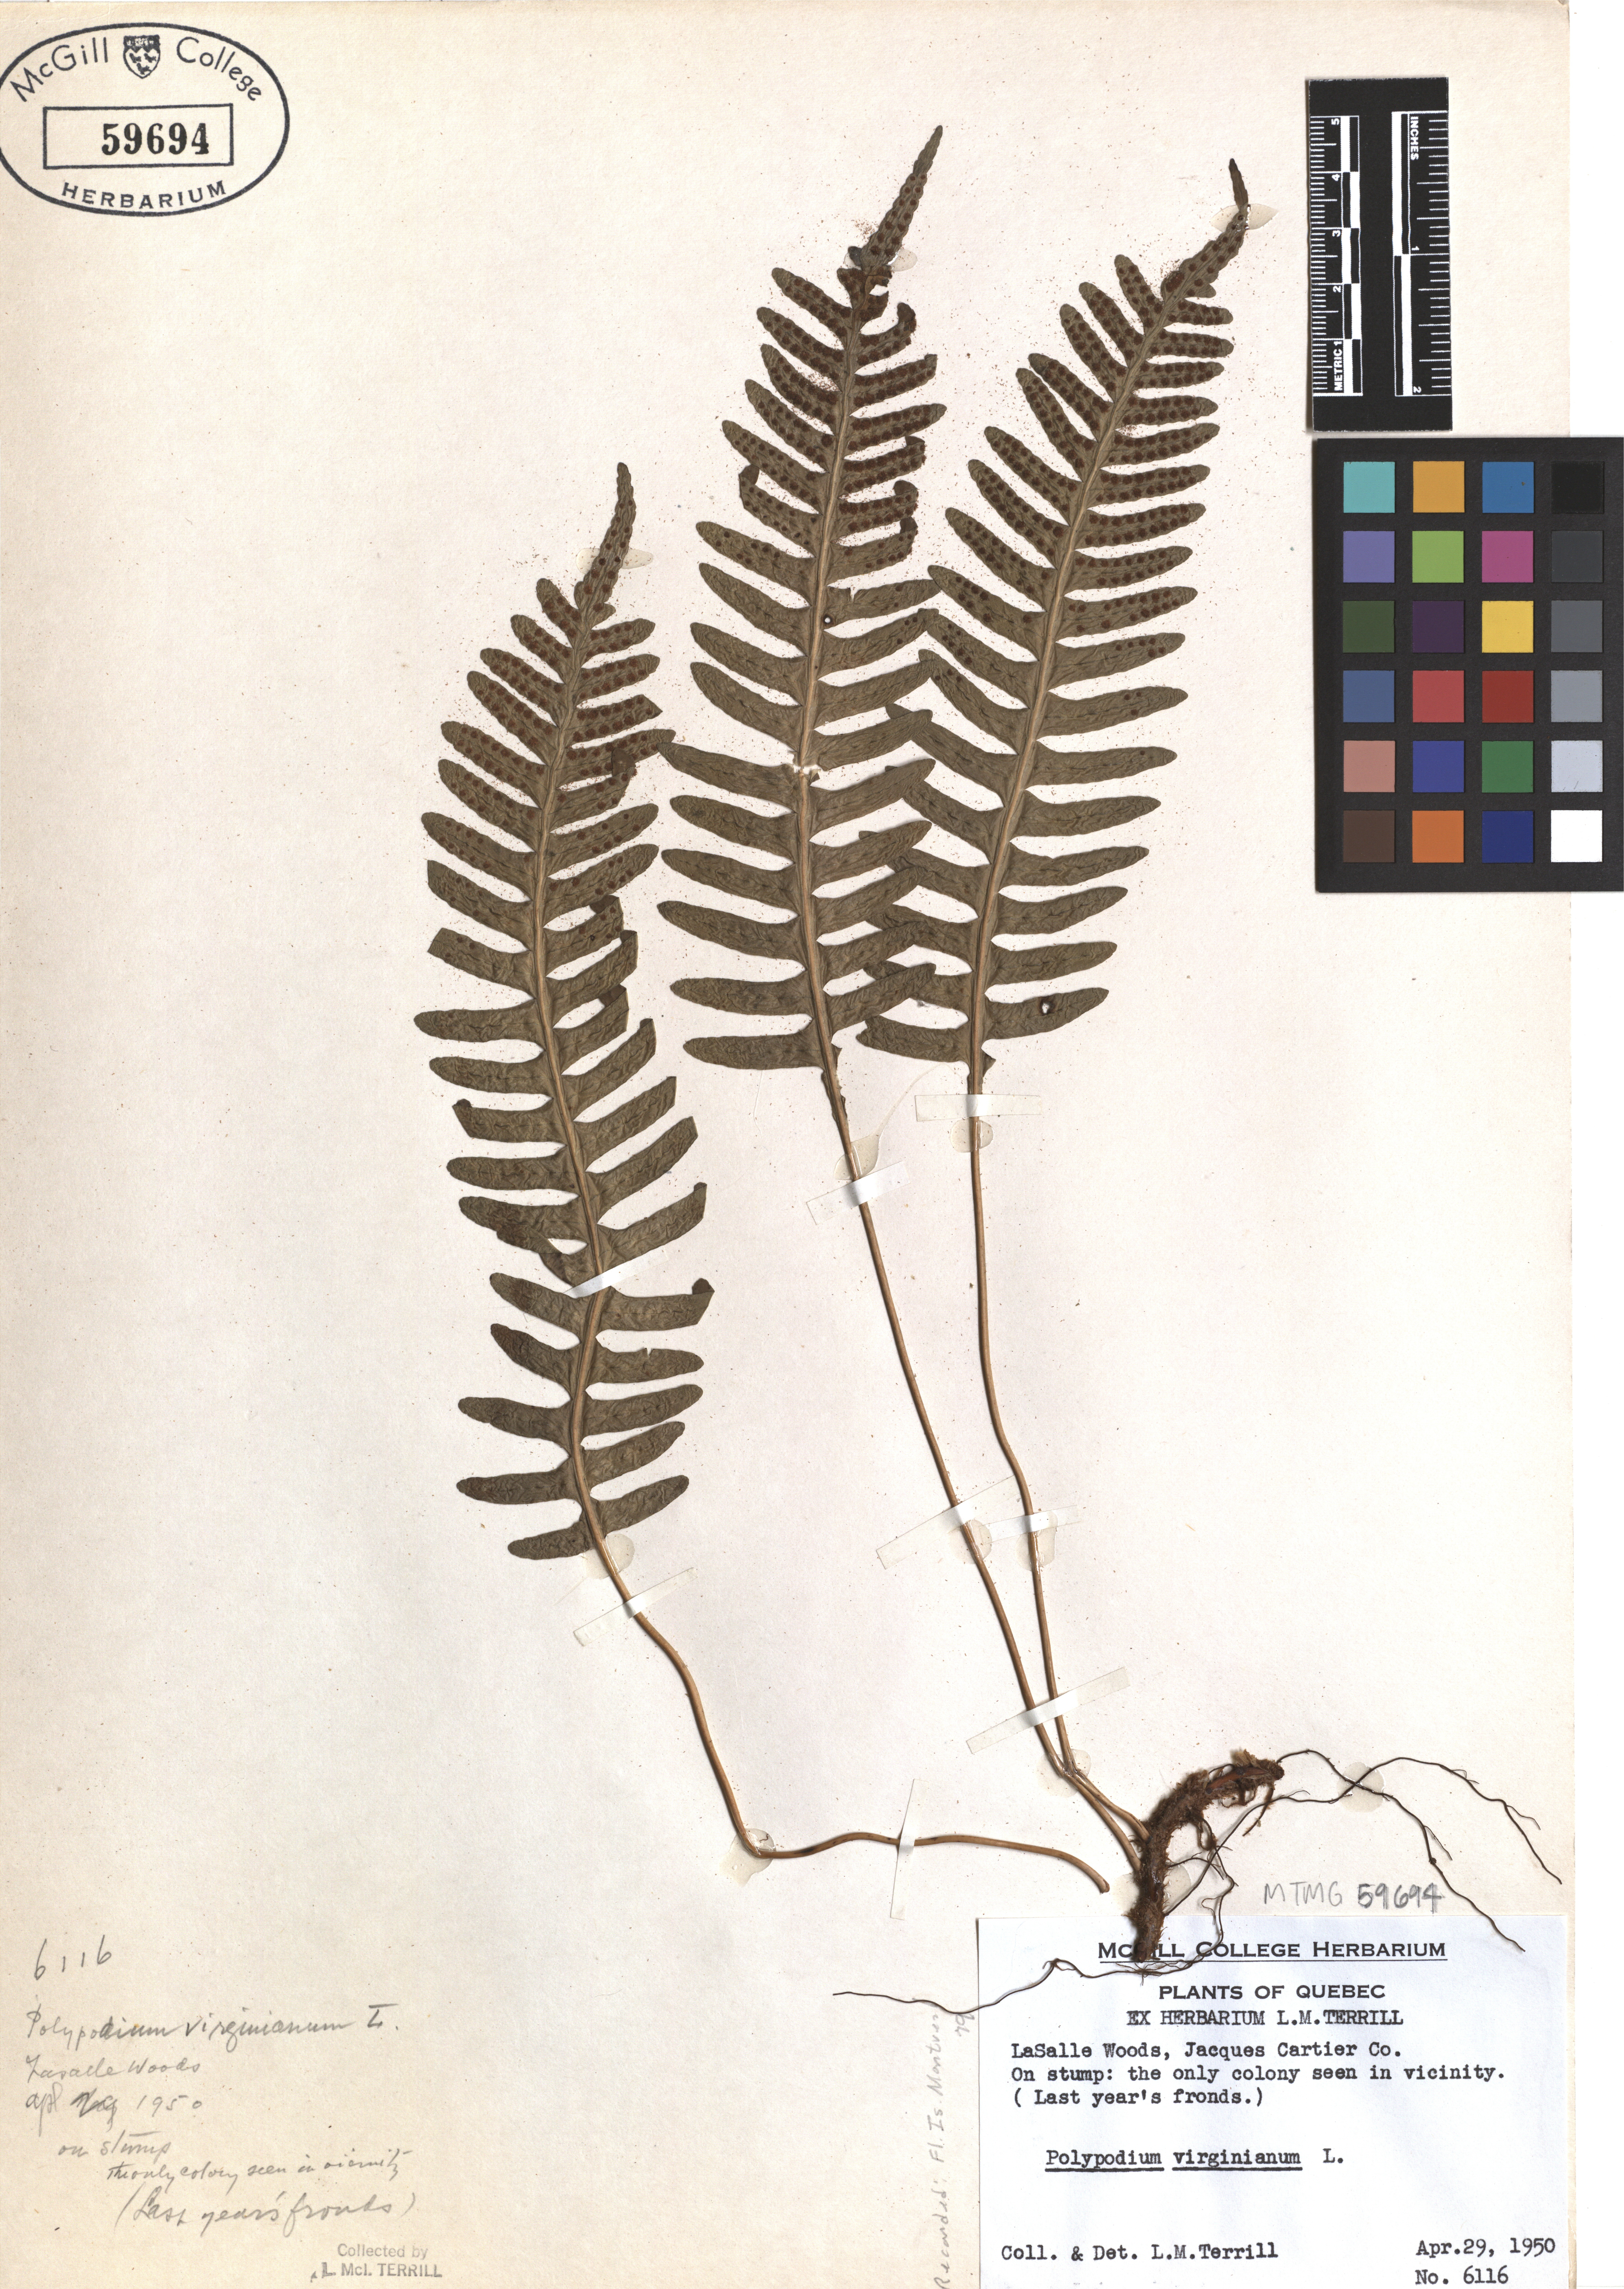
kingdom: Plantae
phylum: Tracheophyta
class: Polypodiopsida
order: Polypodiales
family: Polypodiaceae
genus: Polypodium
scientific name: Polypodium virginianum
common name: American wall fern
